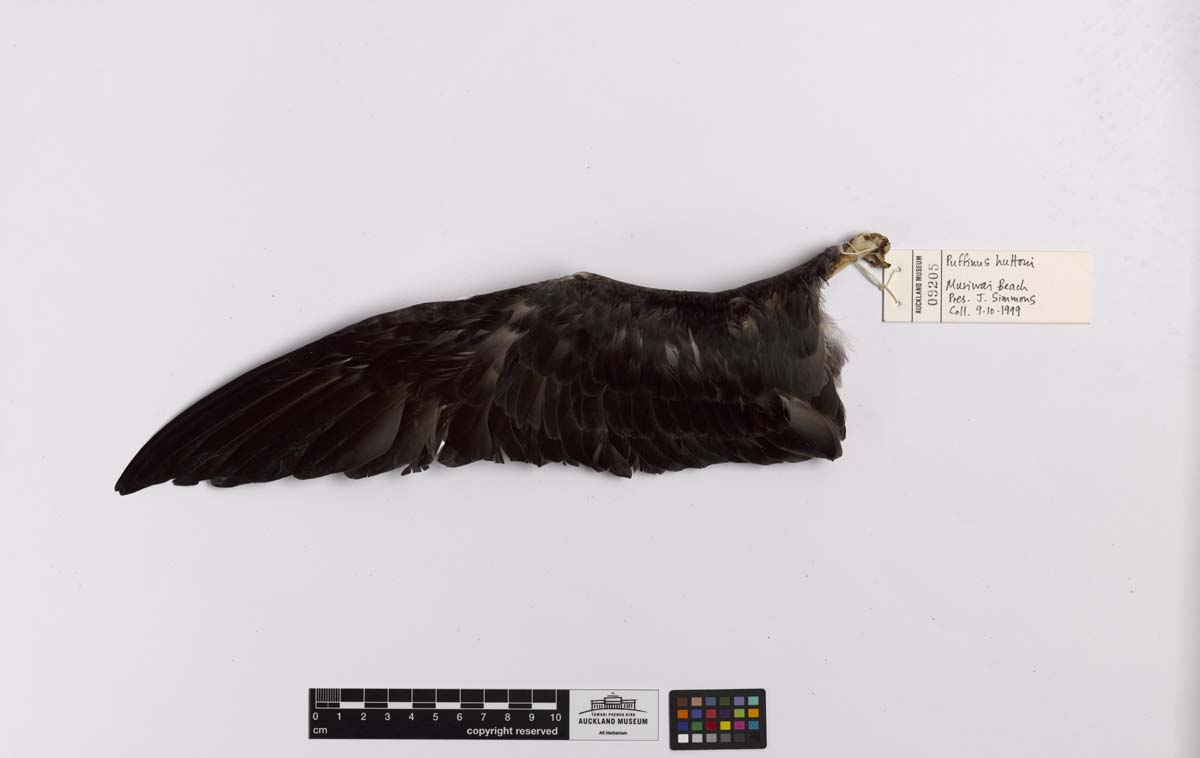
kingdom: Animalia
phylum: Chordata
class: Aves
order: Procellariiformes
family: Procellariidae
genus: Puffinus
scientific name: Puffinus huttoni
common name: Hutton's shearwater
